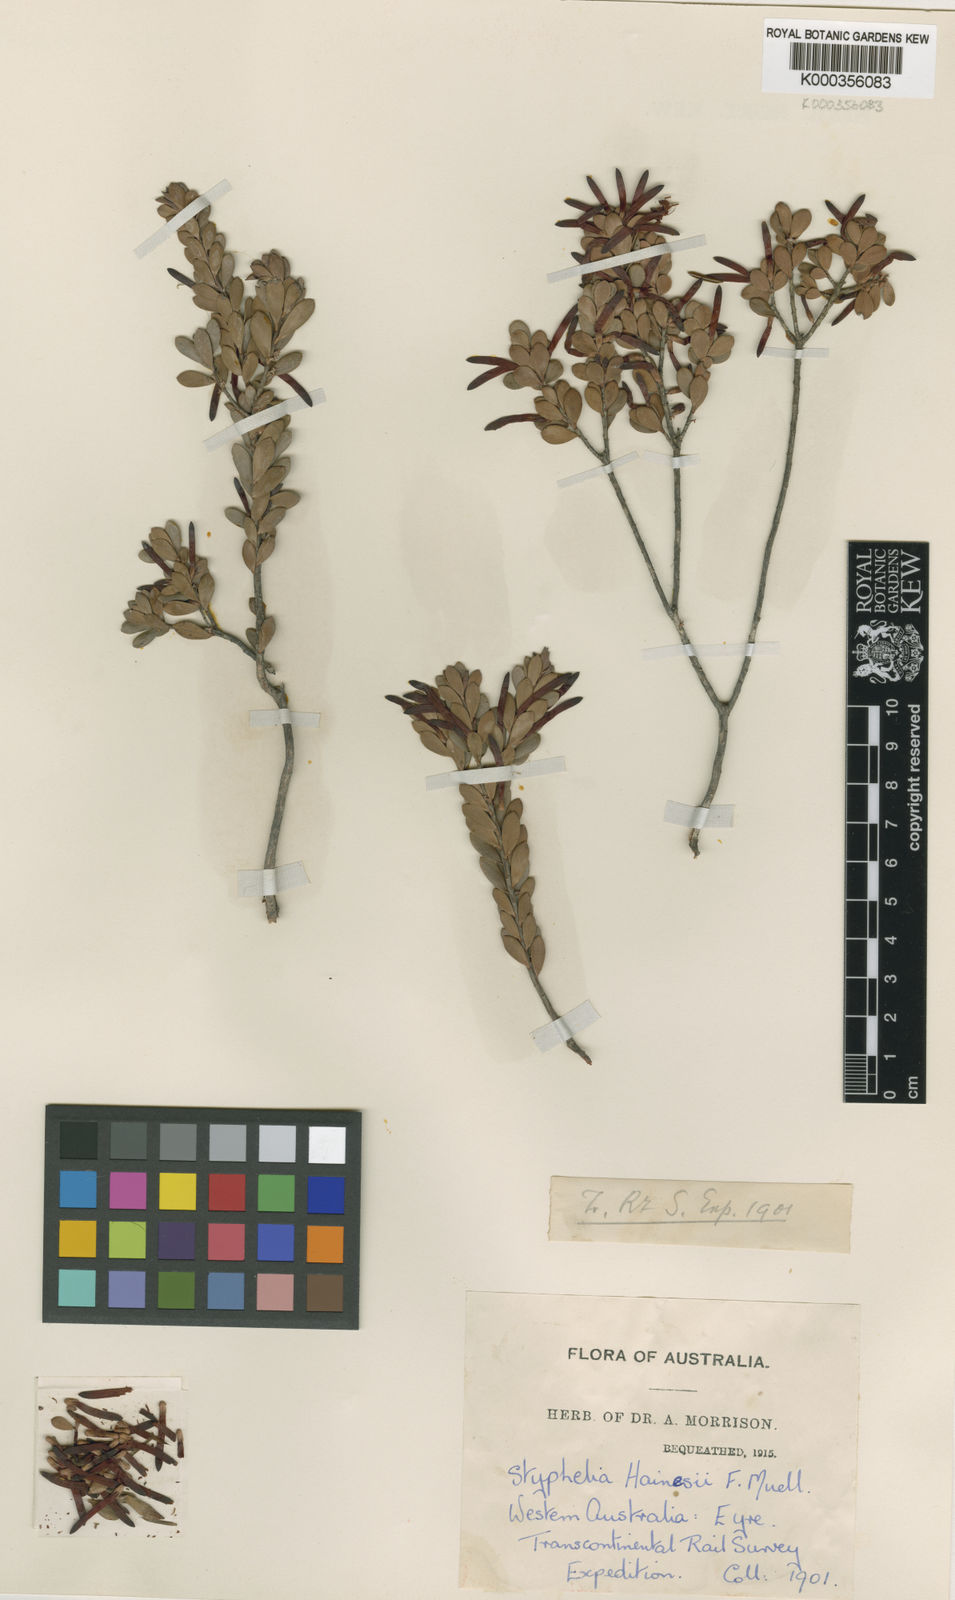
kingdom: Plantae
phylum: Tracheophyta
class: Magnoliopsida
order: Ericales
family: Ericaceae
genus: Styphelia
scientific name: Styphelia hainesii
